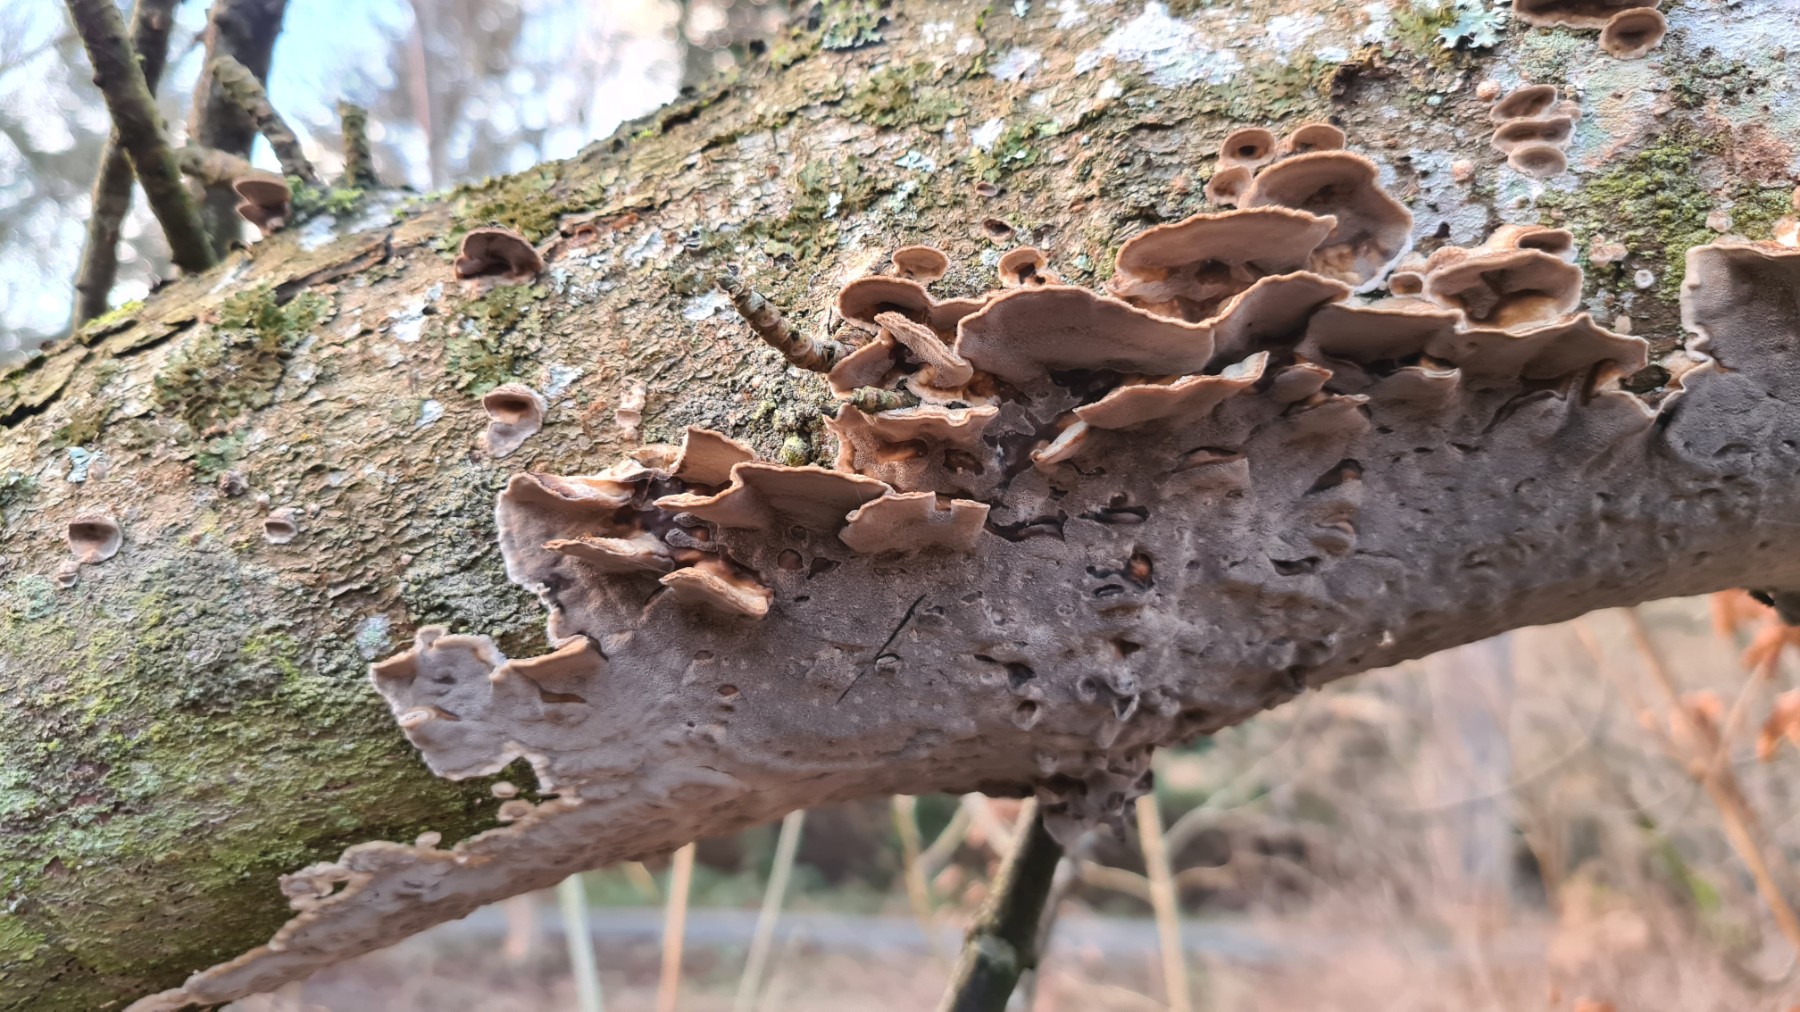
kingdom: Fungi
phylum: Basidiomycota
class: Agaricomycetes
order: Polyporales
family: Phanerochaetaceae
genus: Bjerkandera
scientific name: Bjerkandera adusta
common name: sveden sodporesvamp
